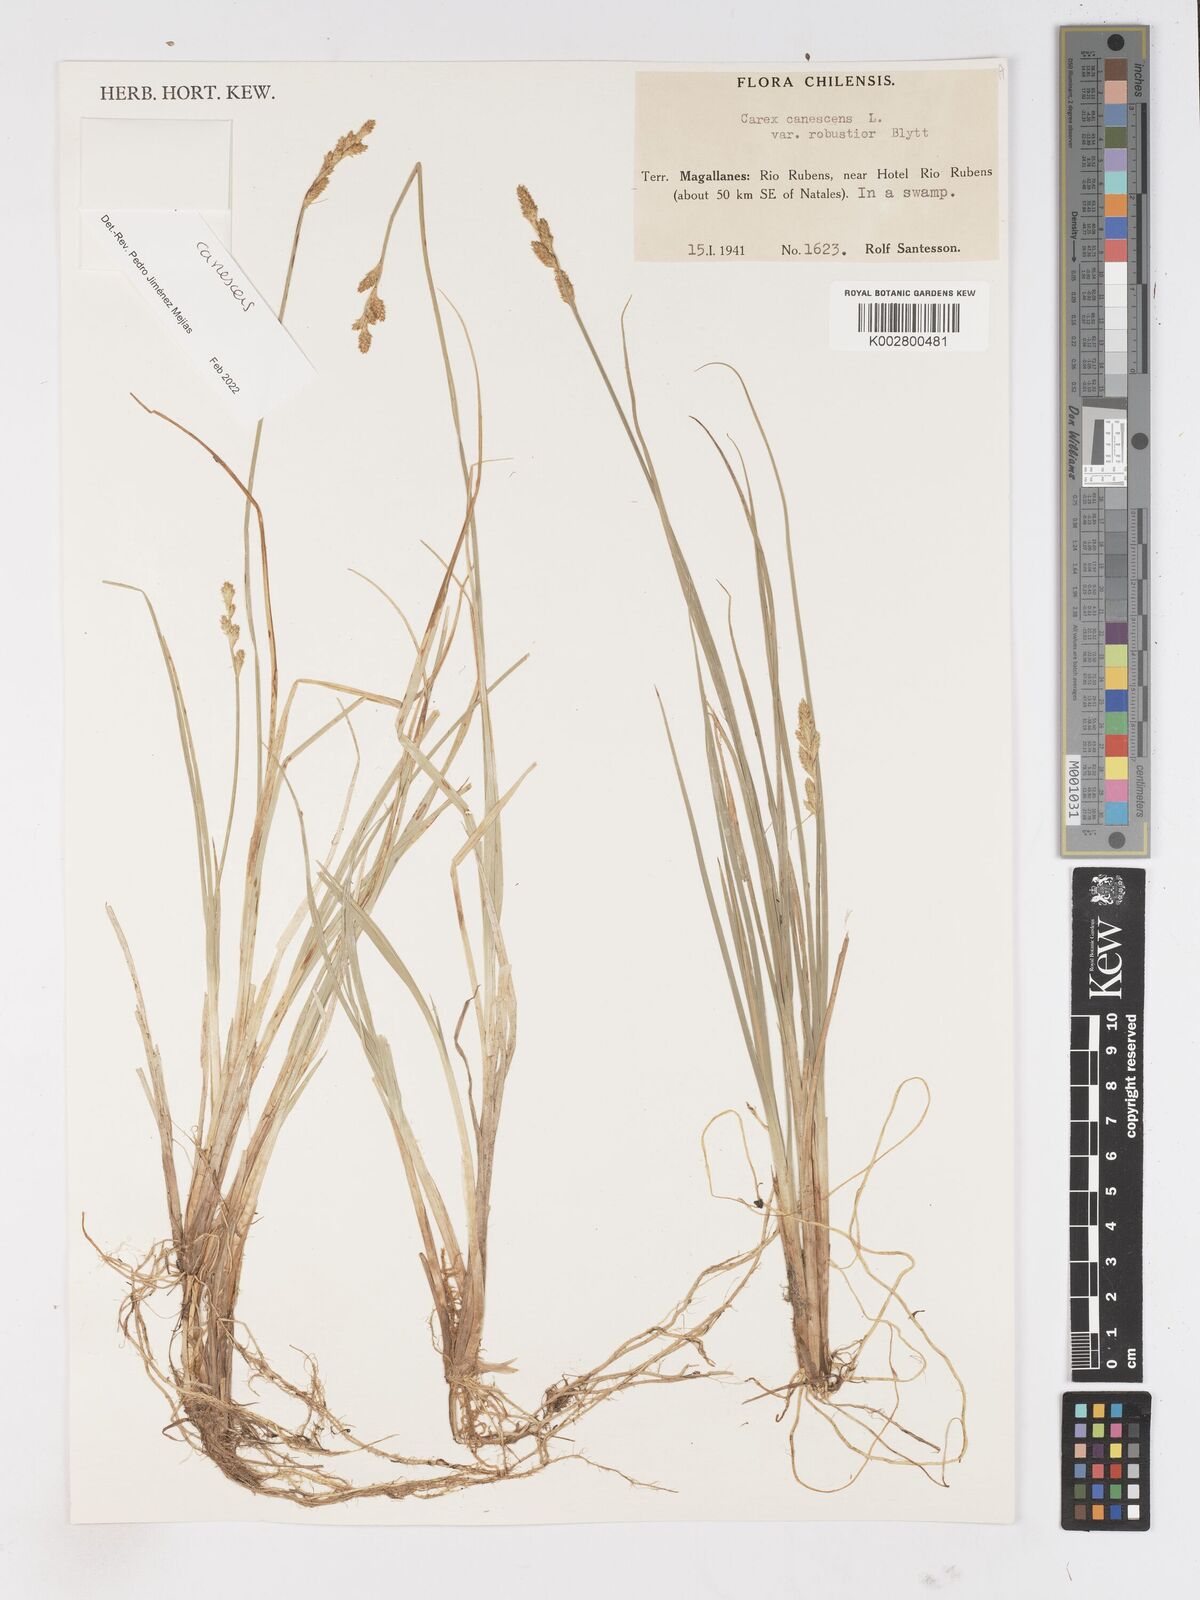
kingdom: Plantae
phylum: Tracheophyta
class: Liliopsida
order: Poales
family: Cyperaceae
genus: Carex
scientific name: Carex curta
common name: White sedge
